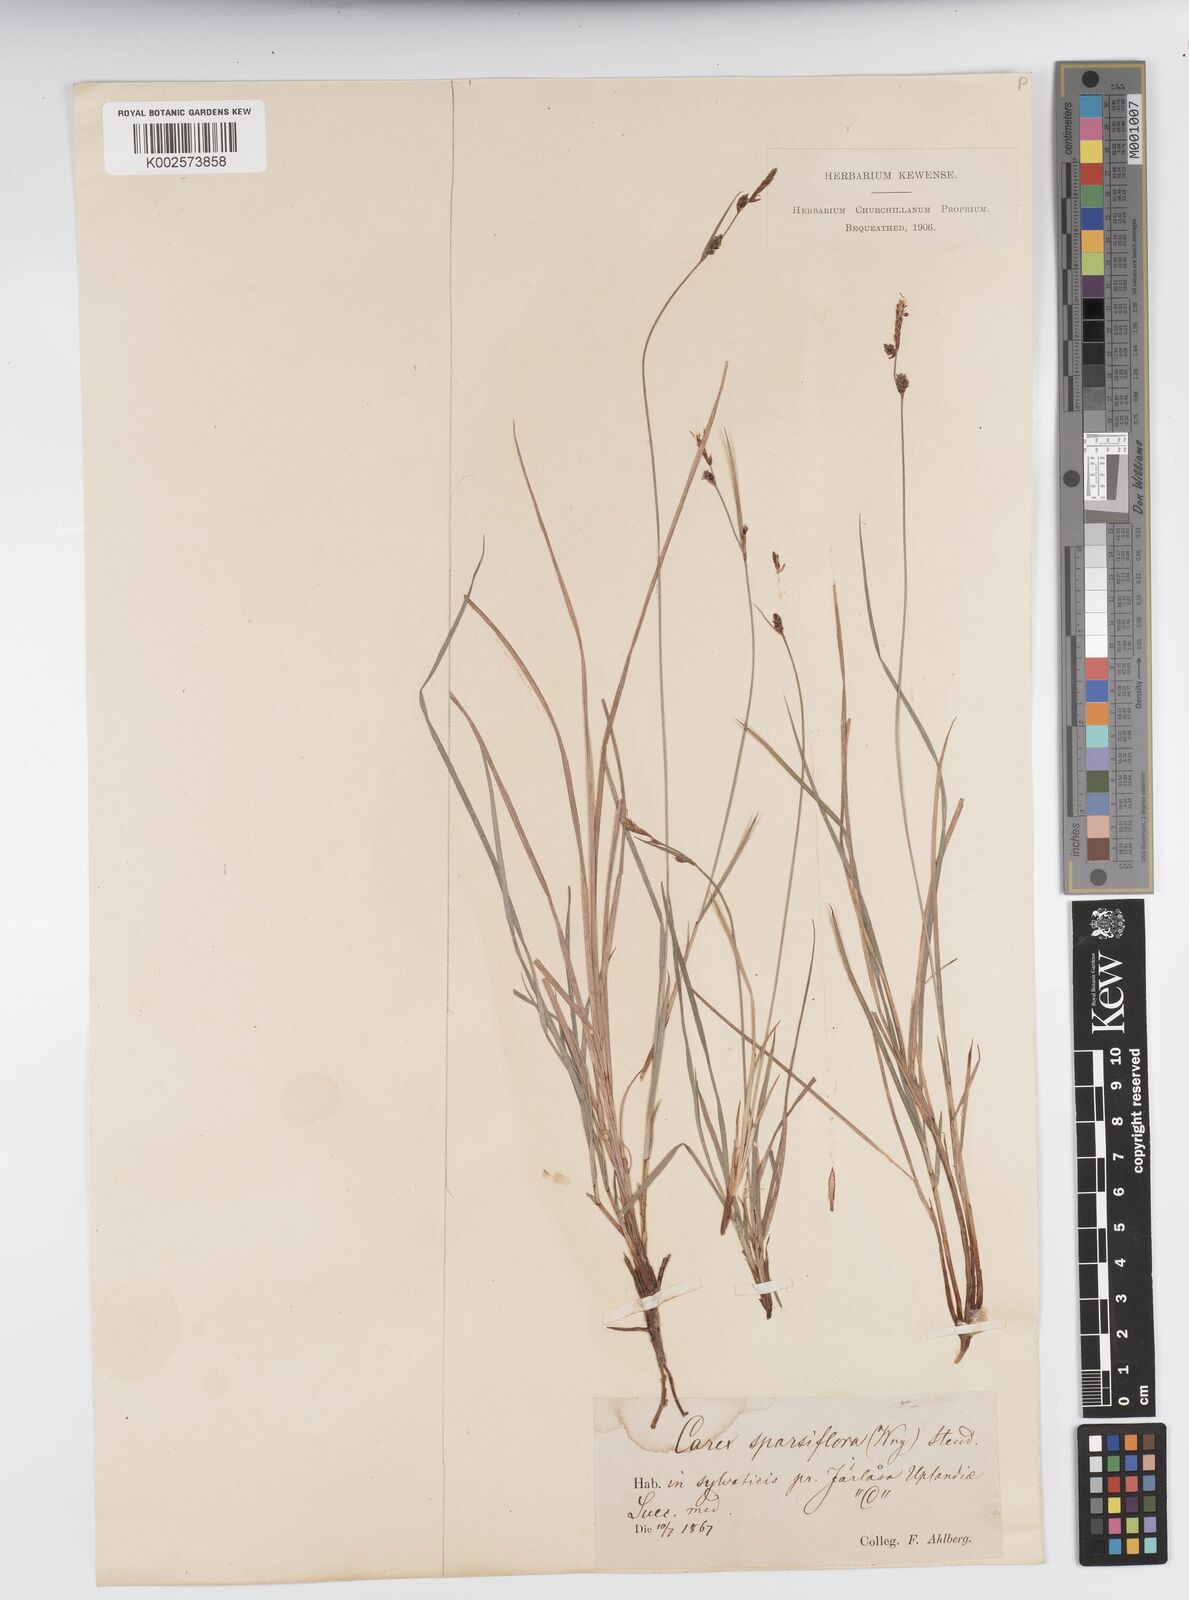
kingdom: Plantae
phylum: Tracheophyta
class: Liliopsida
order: Poales
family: Cyperaceae
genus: Carex
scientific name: Carex vaginata
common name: Sheathed sedge
